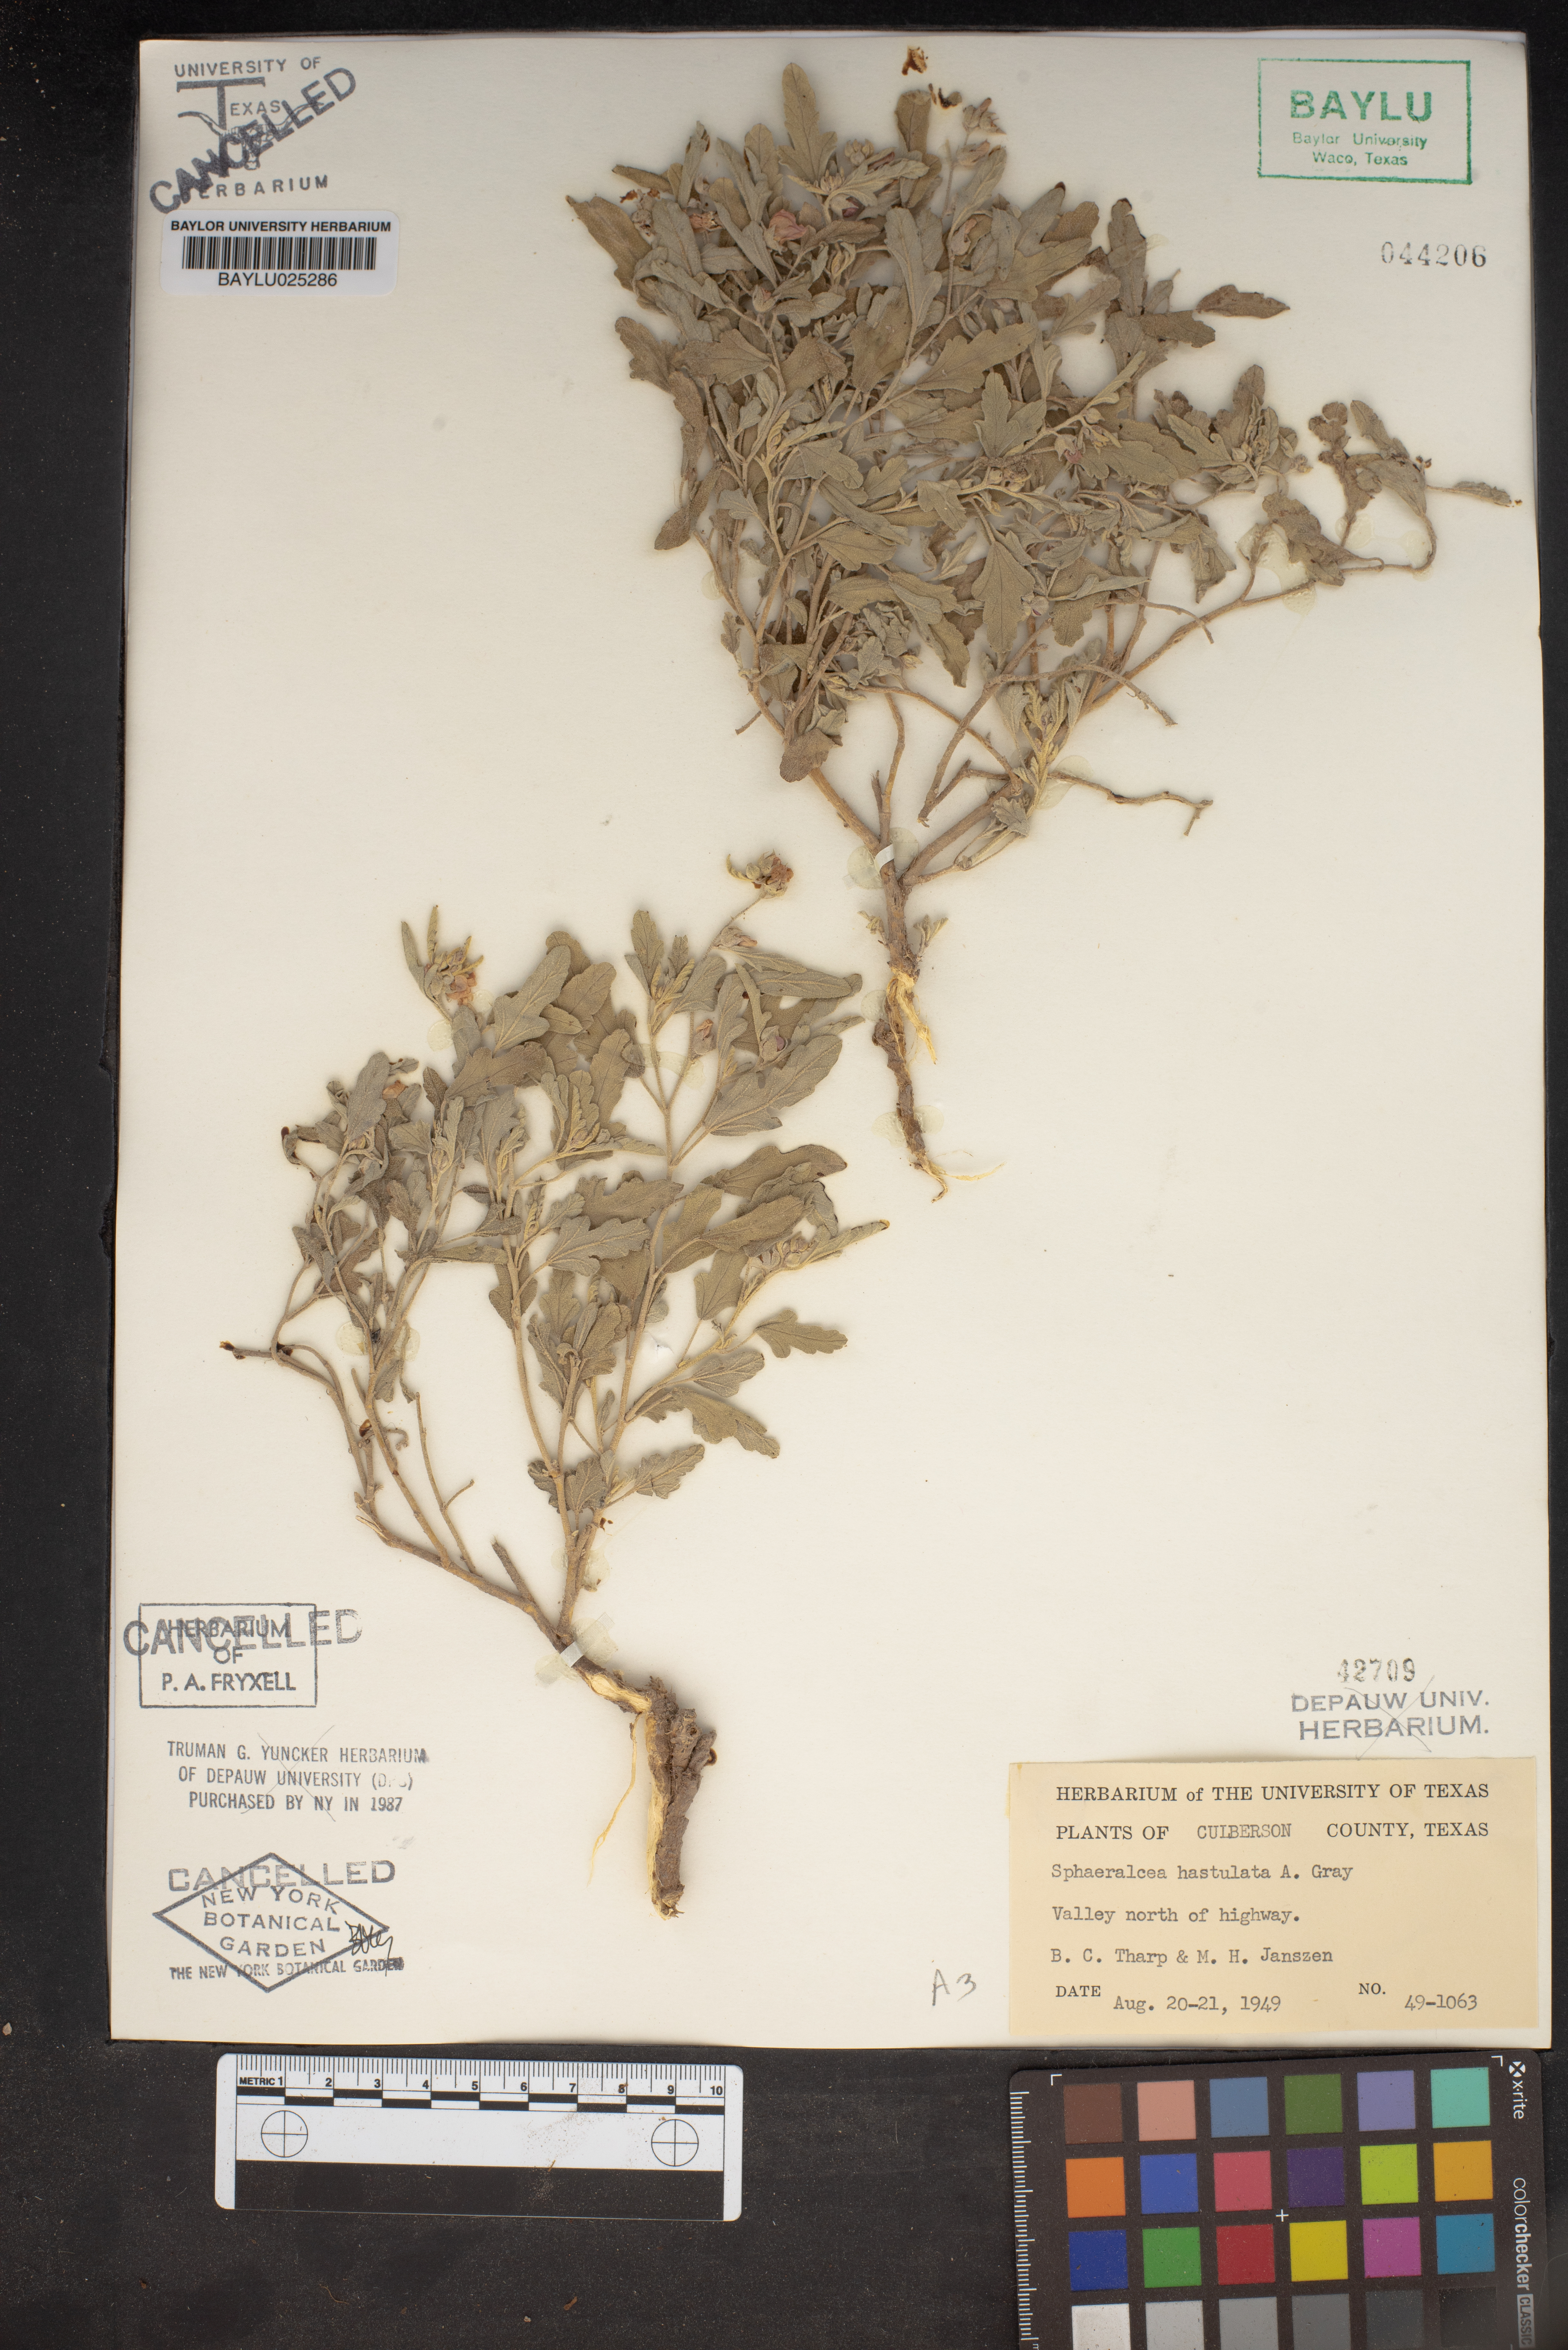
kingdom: Plantae
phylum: Tracheophyta
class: Magnoliopsida
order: Malvales
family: Malvaceae
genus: Sphaeralcea
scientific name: Sphaeralcea hastulata
